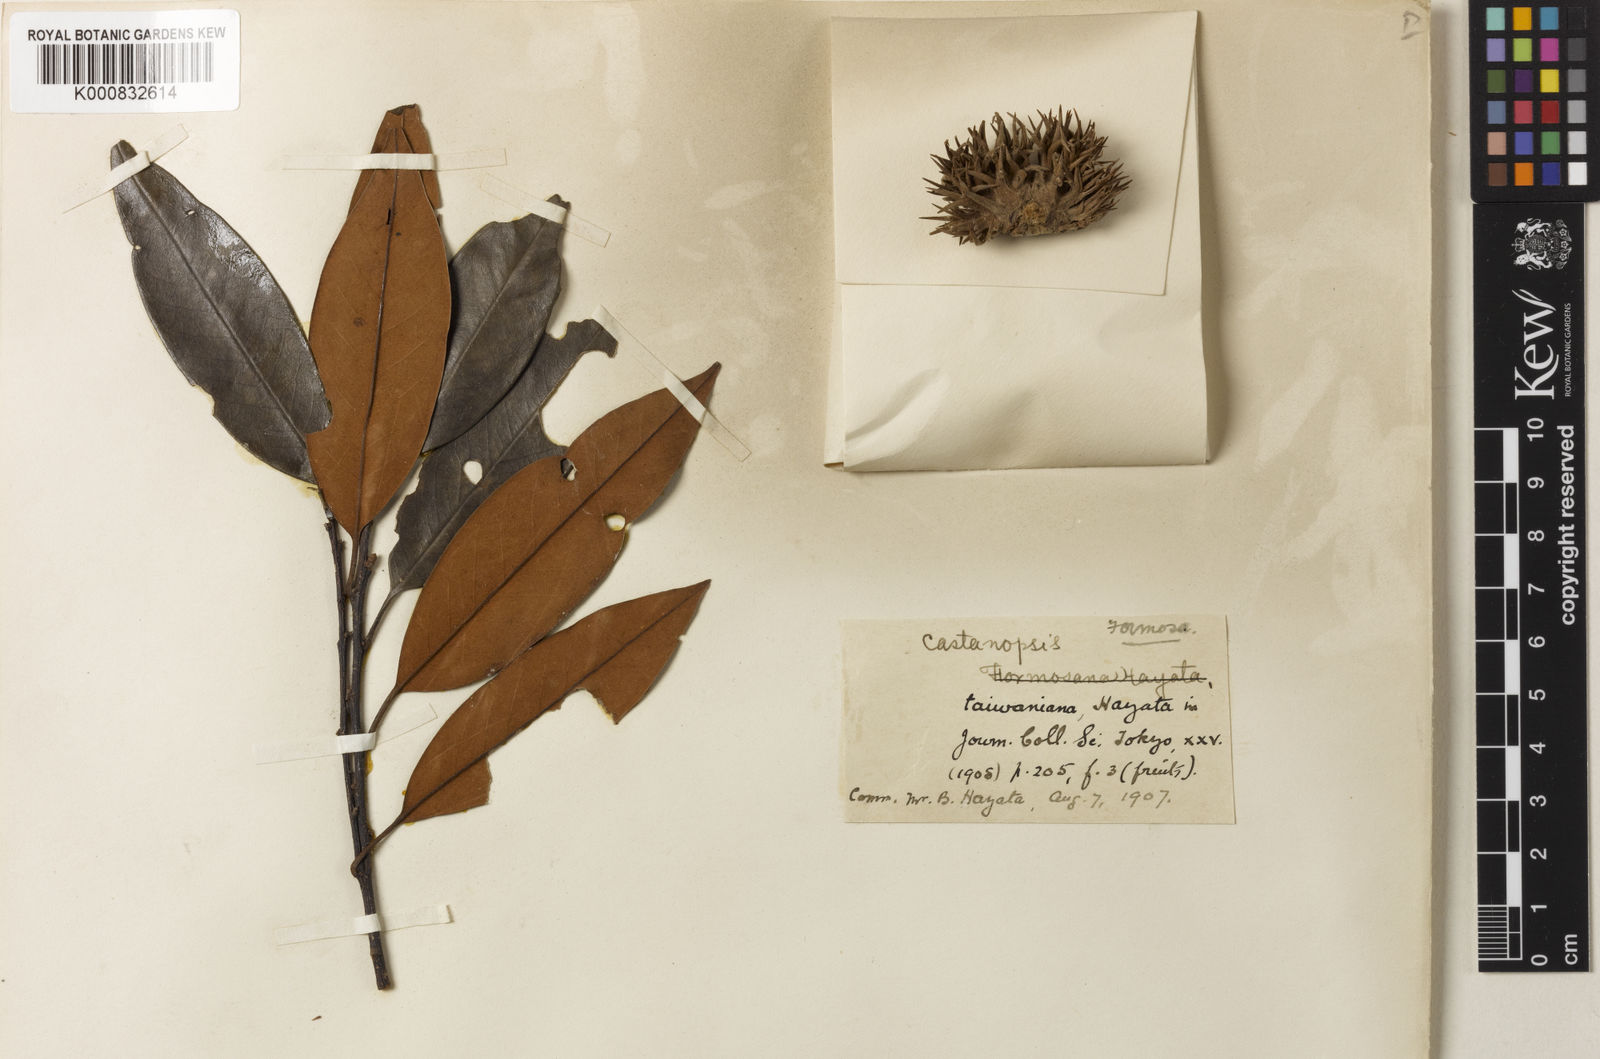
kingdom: Plantae
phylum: Tracheophyta
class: Magnoliopsida
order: Fagales
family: Fagaceae
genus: Castanopsis
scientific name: Castanopsis fargesii
